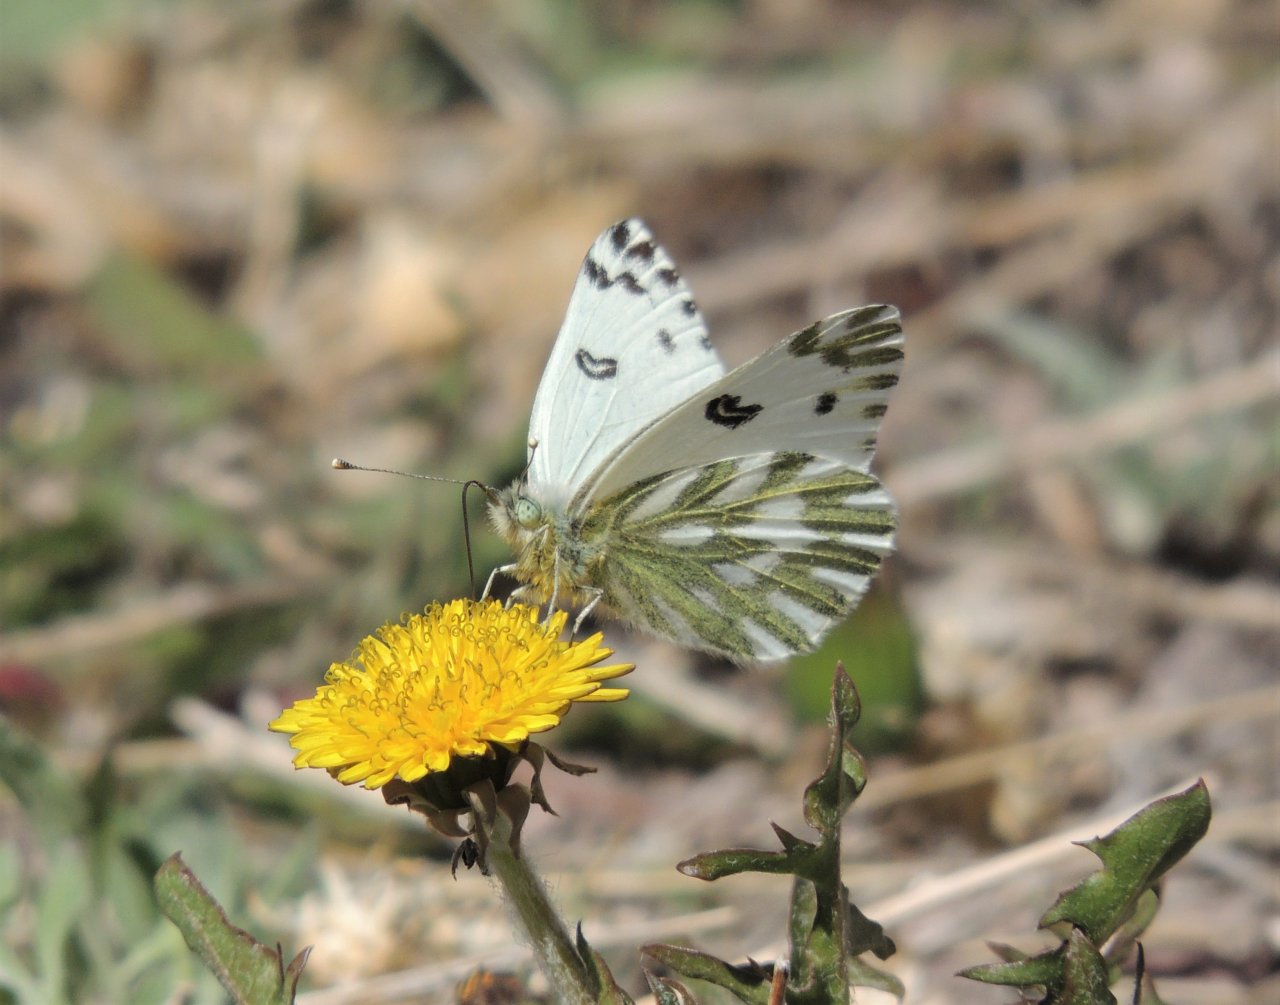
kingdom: Animalia
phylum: Arthropoda
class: Insecta
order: Lepidoptera
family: Pieridae
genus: Pontia
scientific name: Pontia beckerii
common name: Becker's White
